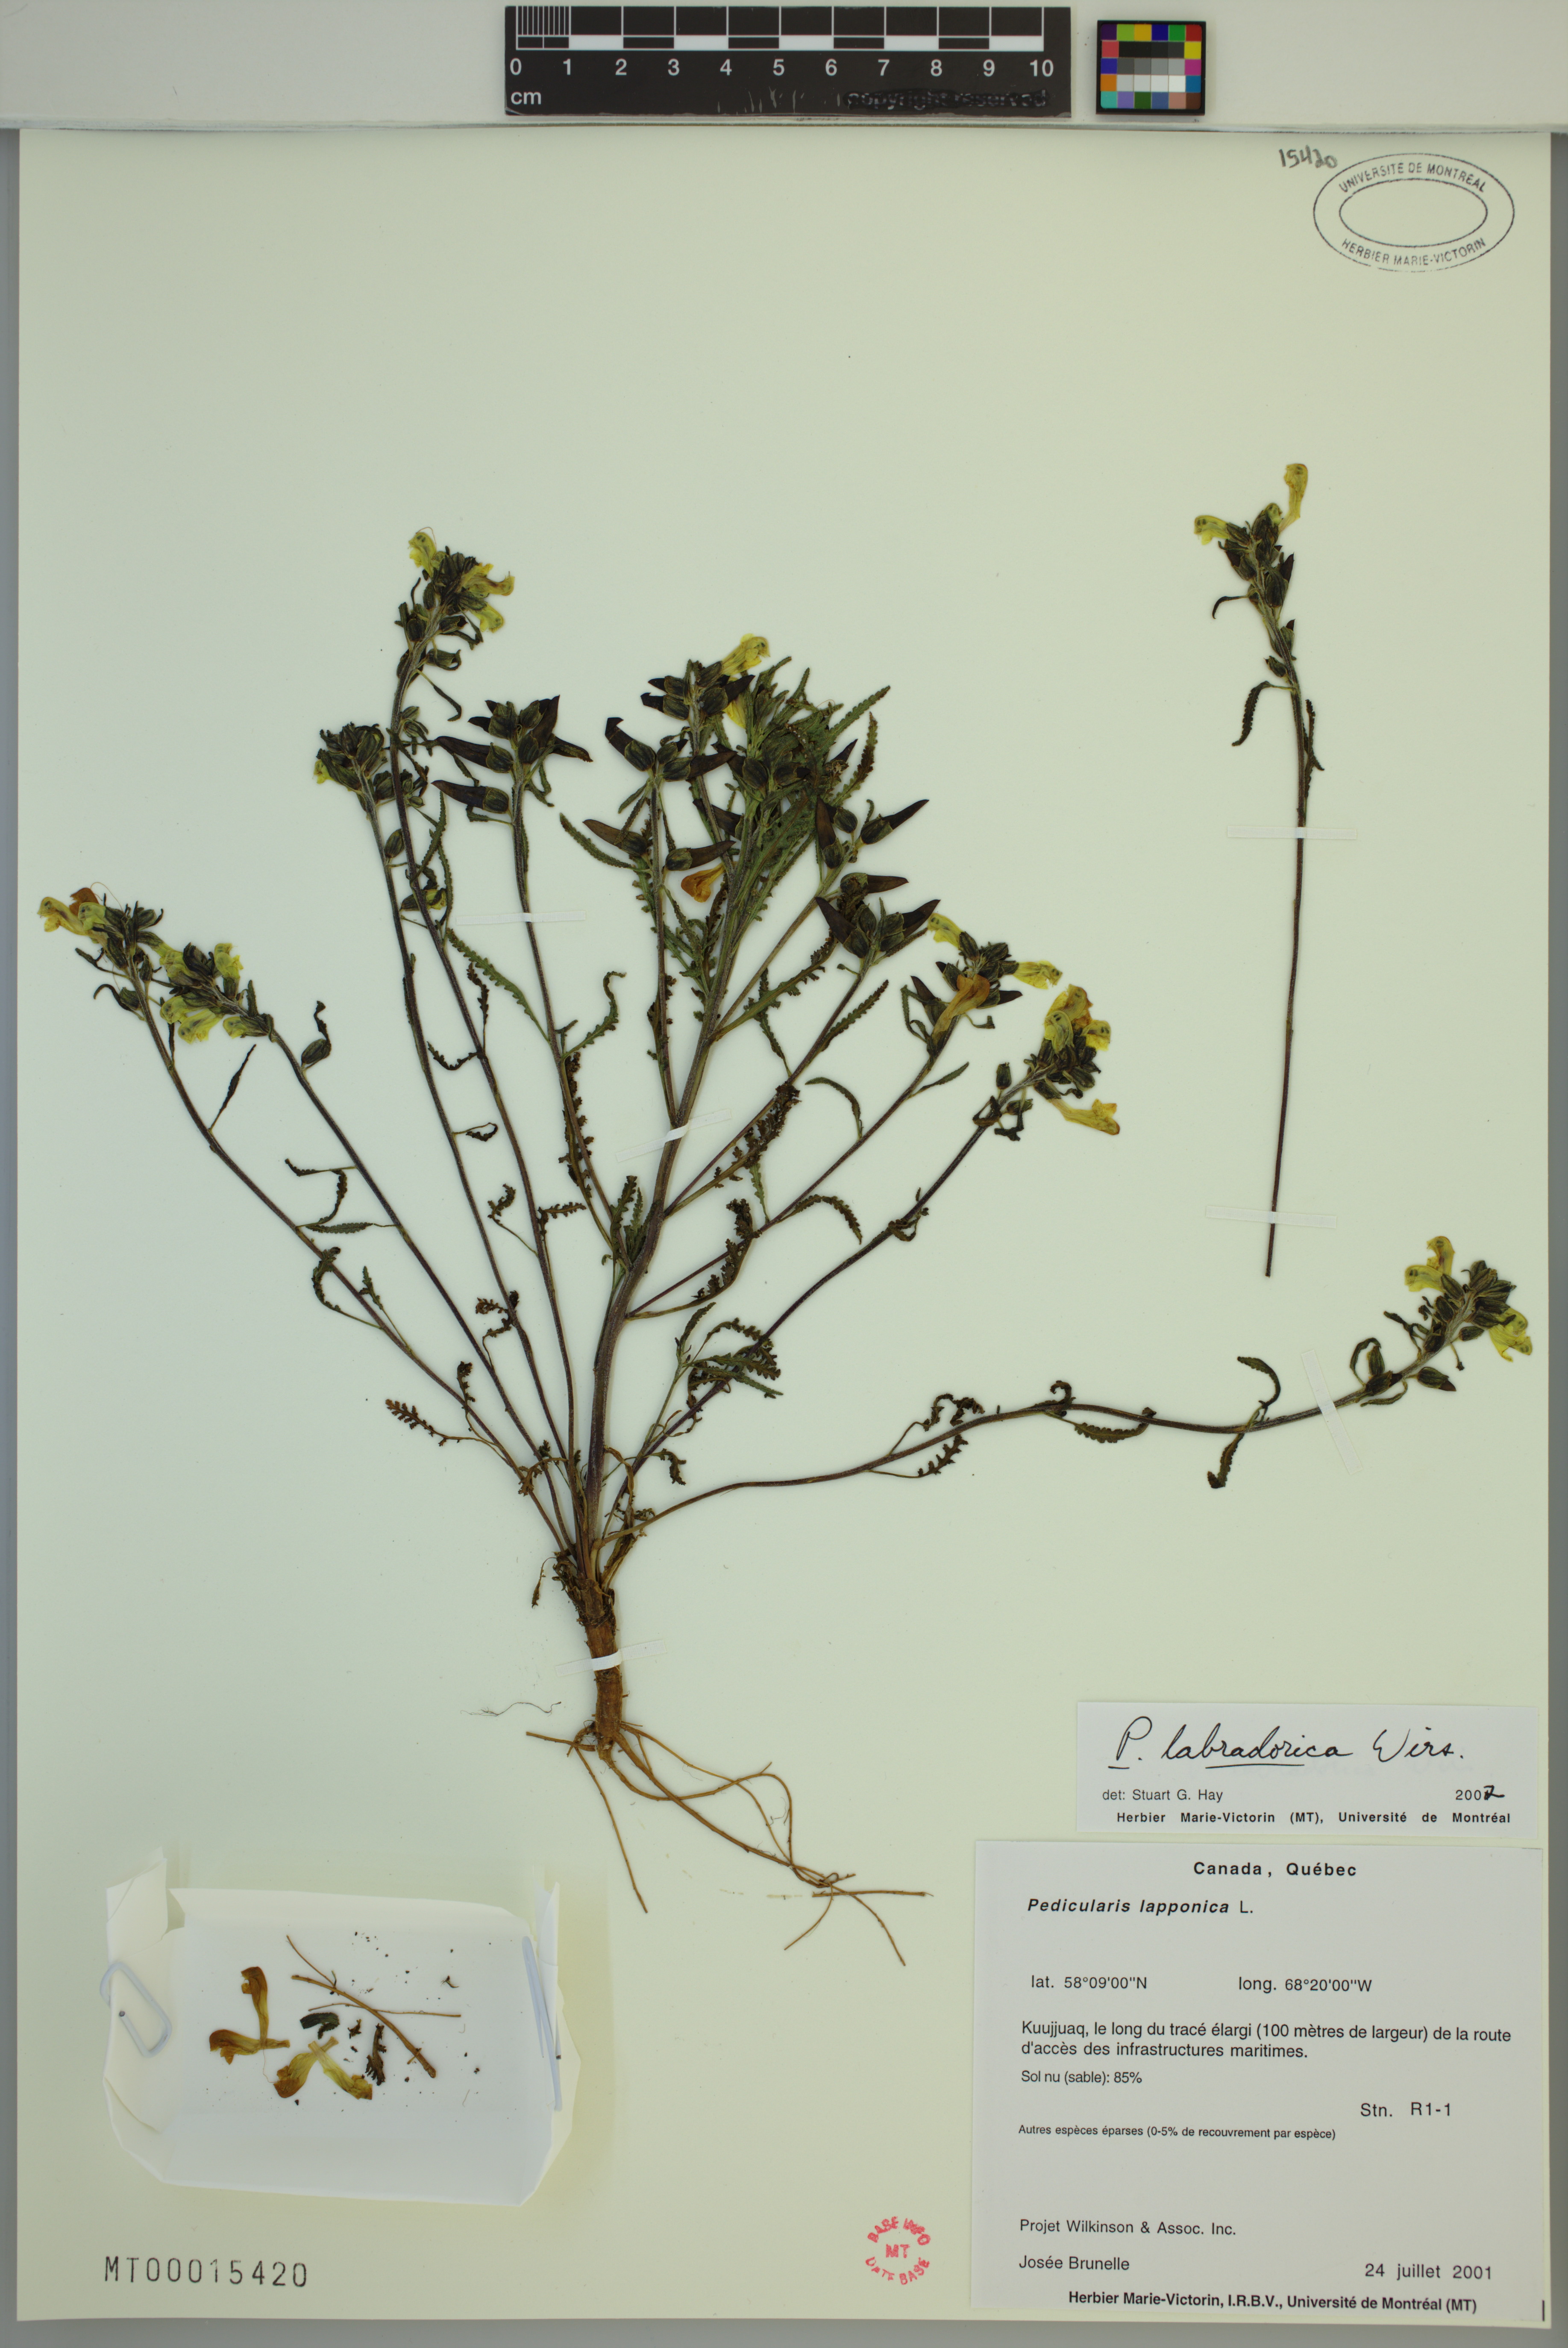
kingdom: Plantae
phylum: Tracheophyta
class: Magnoliopsida
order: Lamiales
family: Orobanchaceae
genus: Pedicularis
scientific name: Pedicularis labradorica
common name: Labrador lousewort
